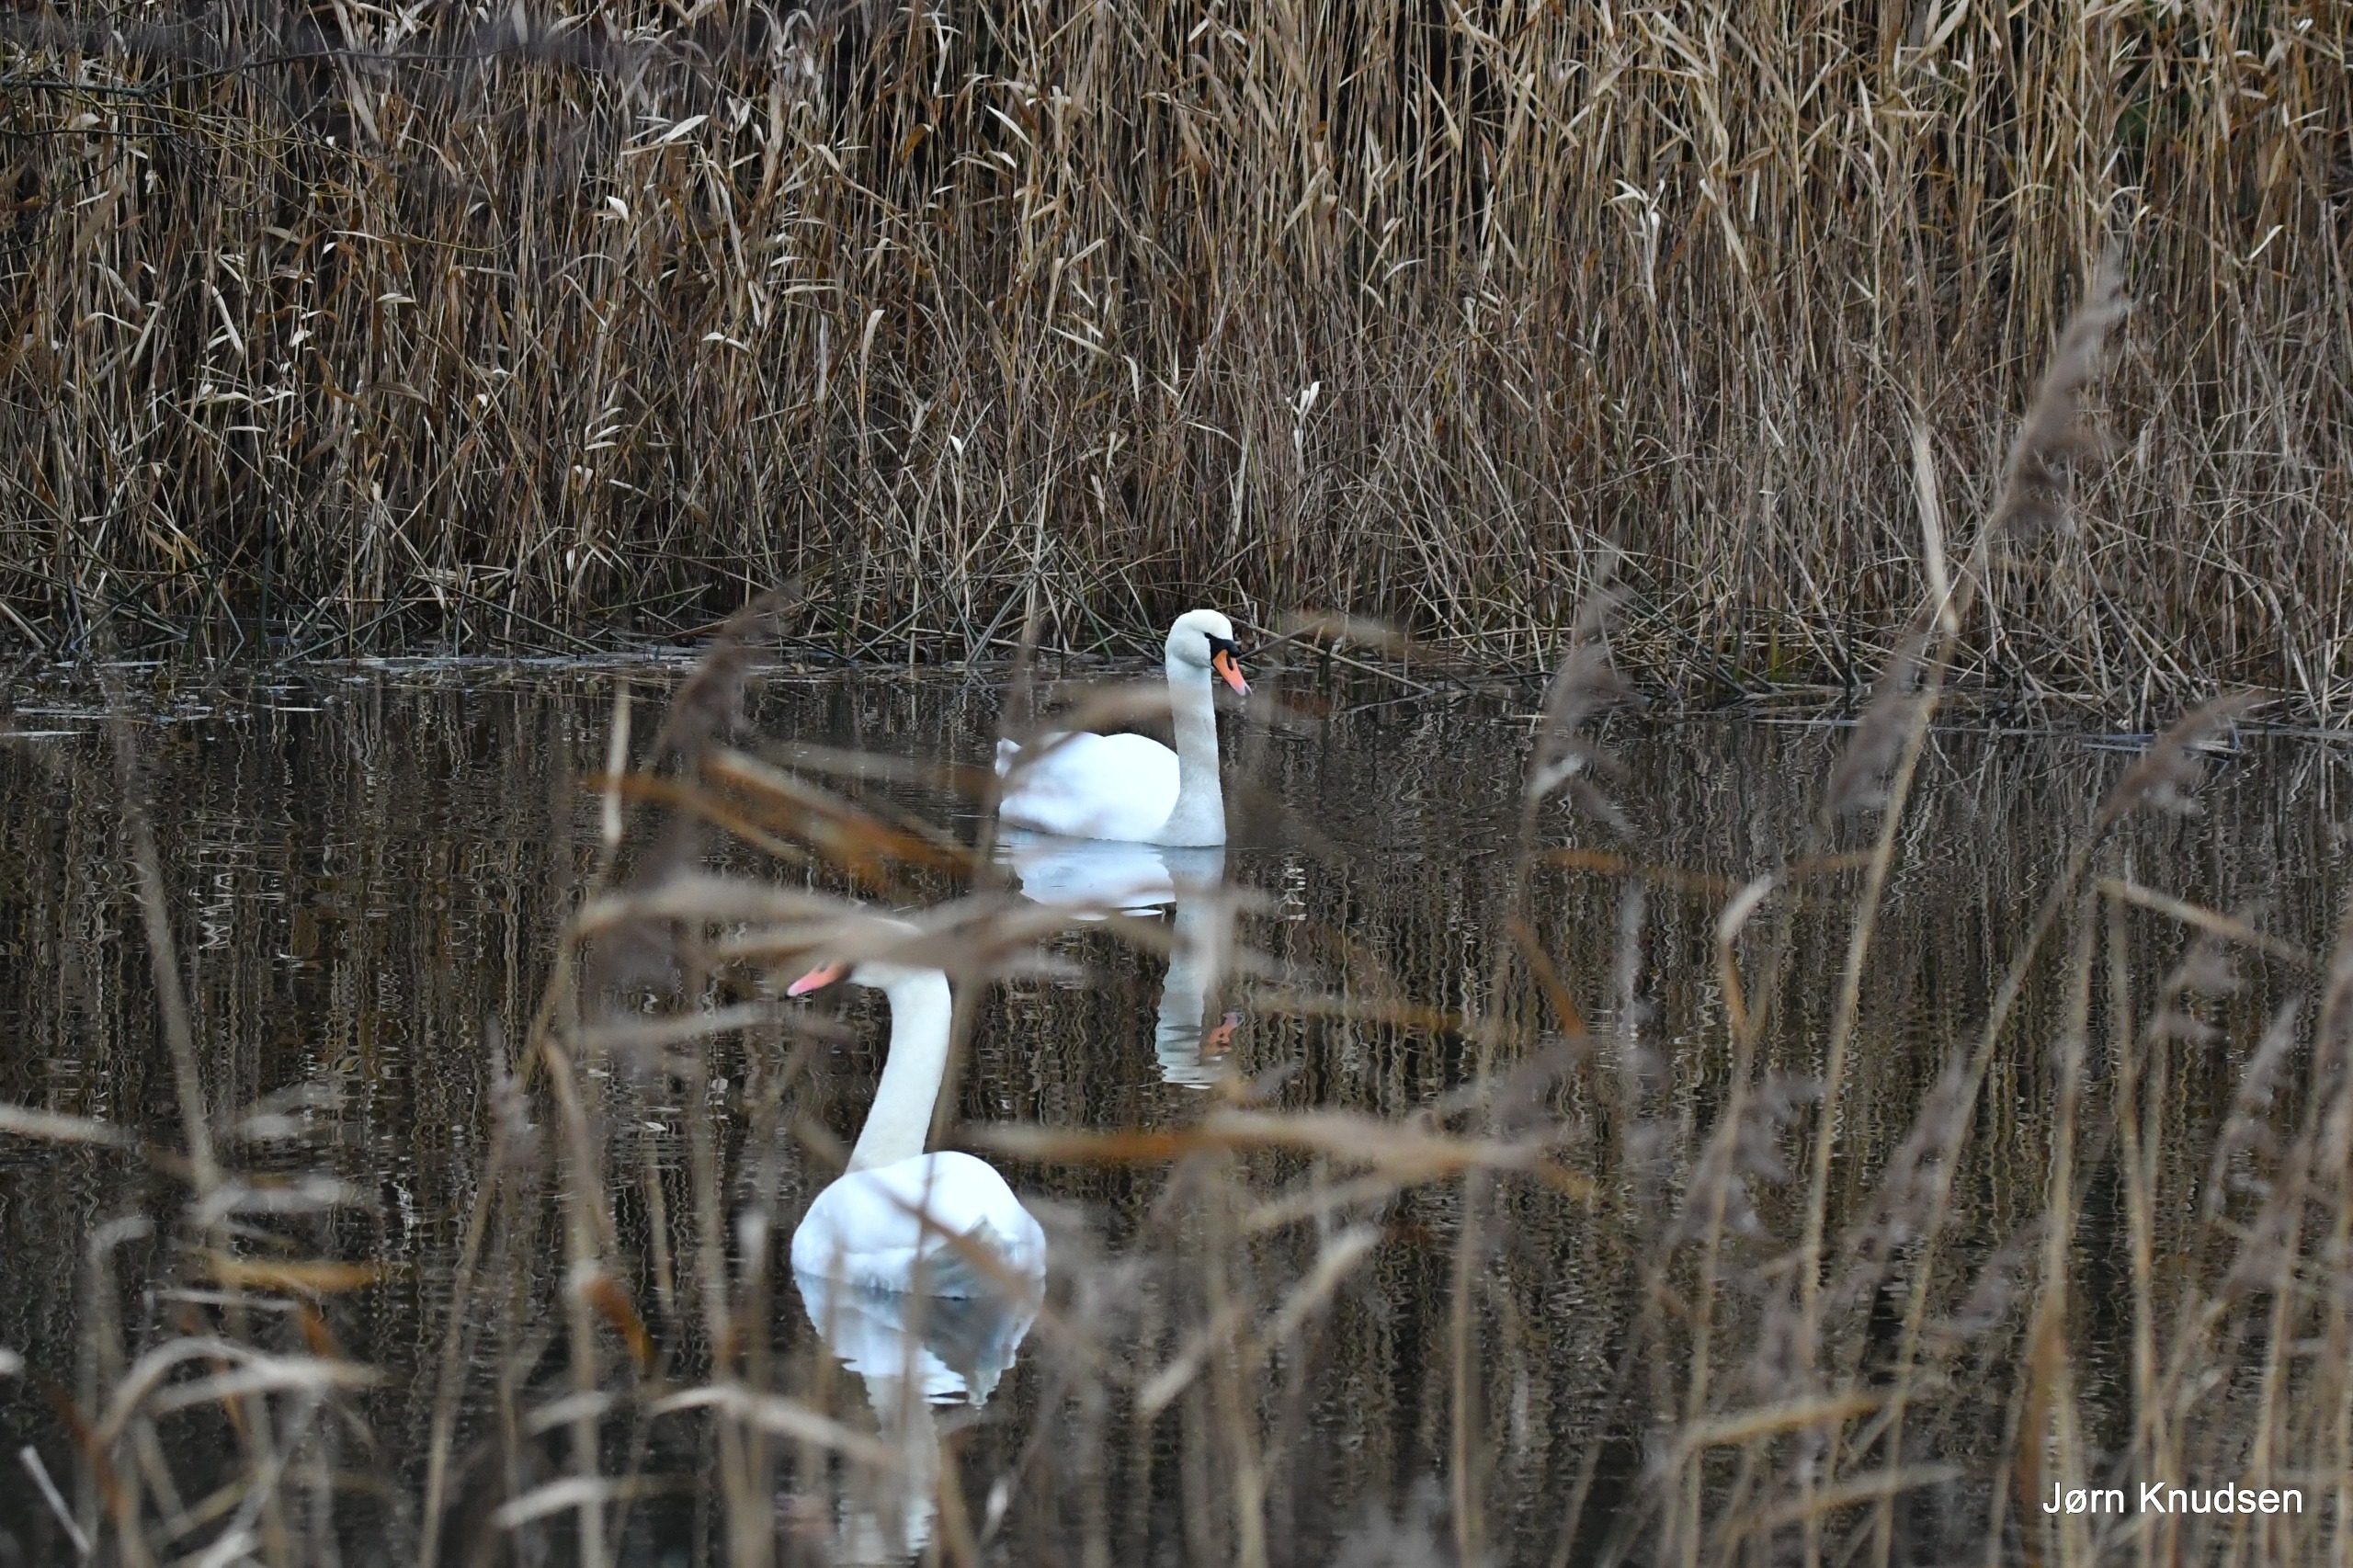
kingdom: Animalia
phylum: Chordata
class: Aves
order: Anseriformes
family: Anatidae
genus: Cygnus
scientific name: Cygnus olor
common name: Knopsvane
